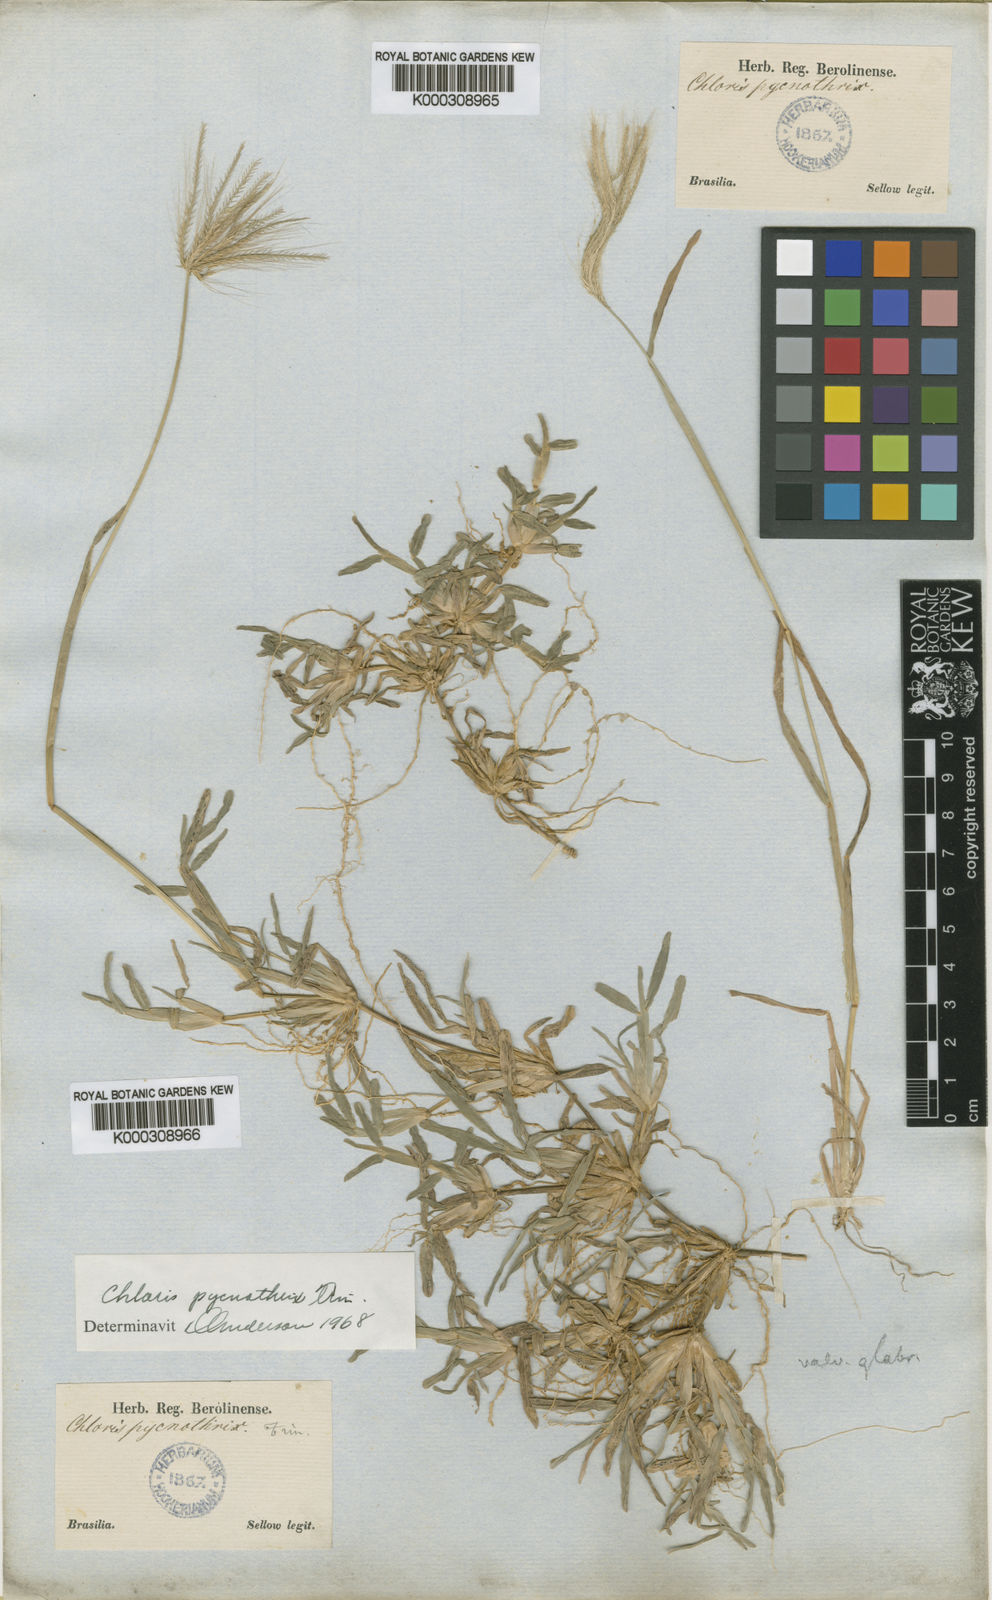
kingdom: Plantae
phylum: Tracheophyta
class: Liliopsida
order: Poales
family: Poaceae
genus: Chloris
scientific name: Chloris pycnothrix
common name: Spiderweb chloris
